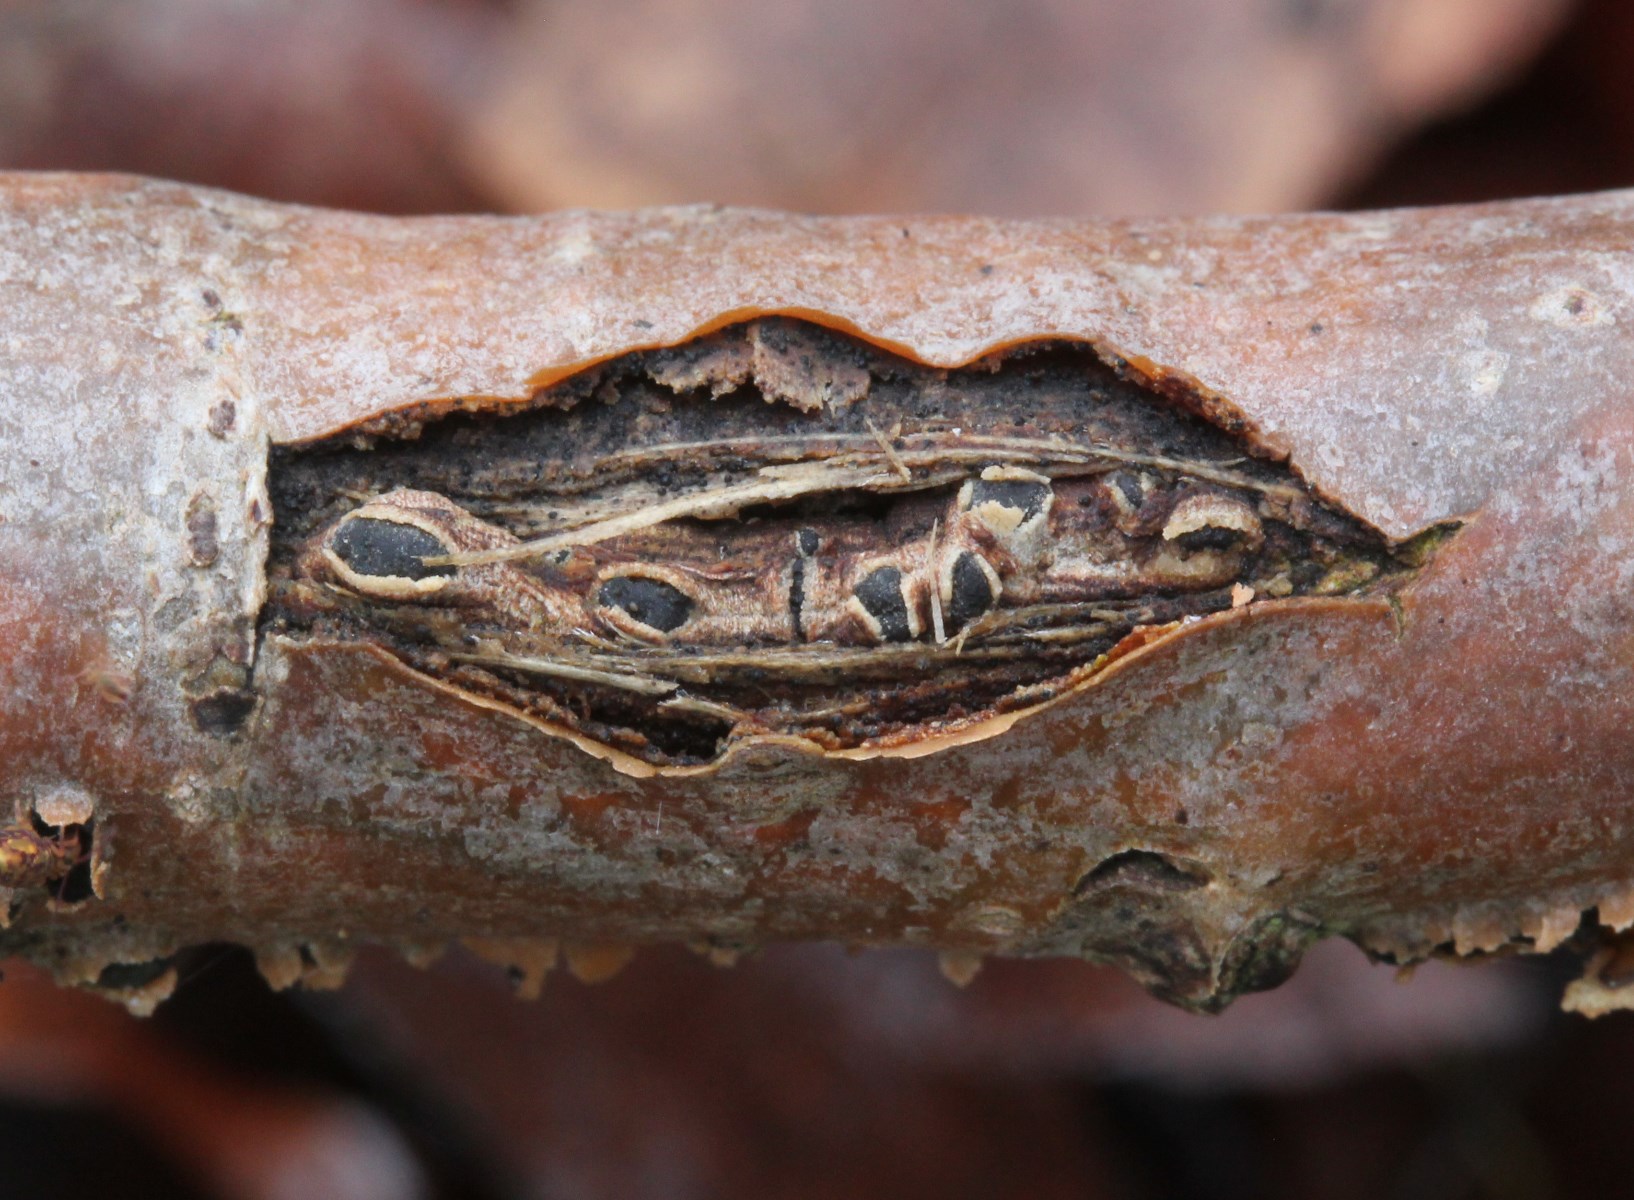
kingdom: Fungi
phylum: Ascomycota
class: Sordariomycetes
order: Diaporthales
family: Gnomoniaceae
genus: Plagiostoma
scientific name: Plagiostoma populinum
